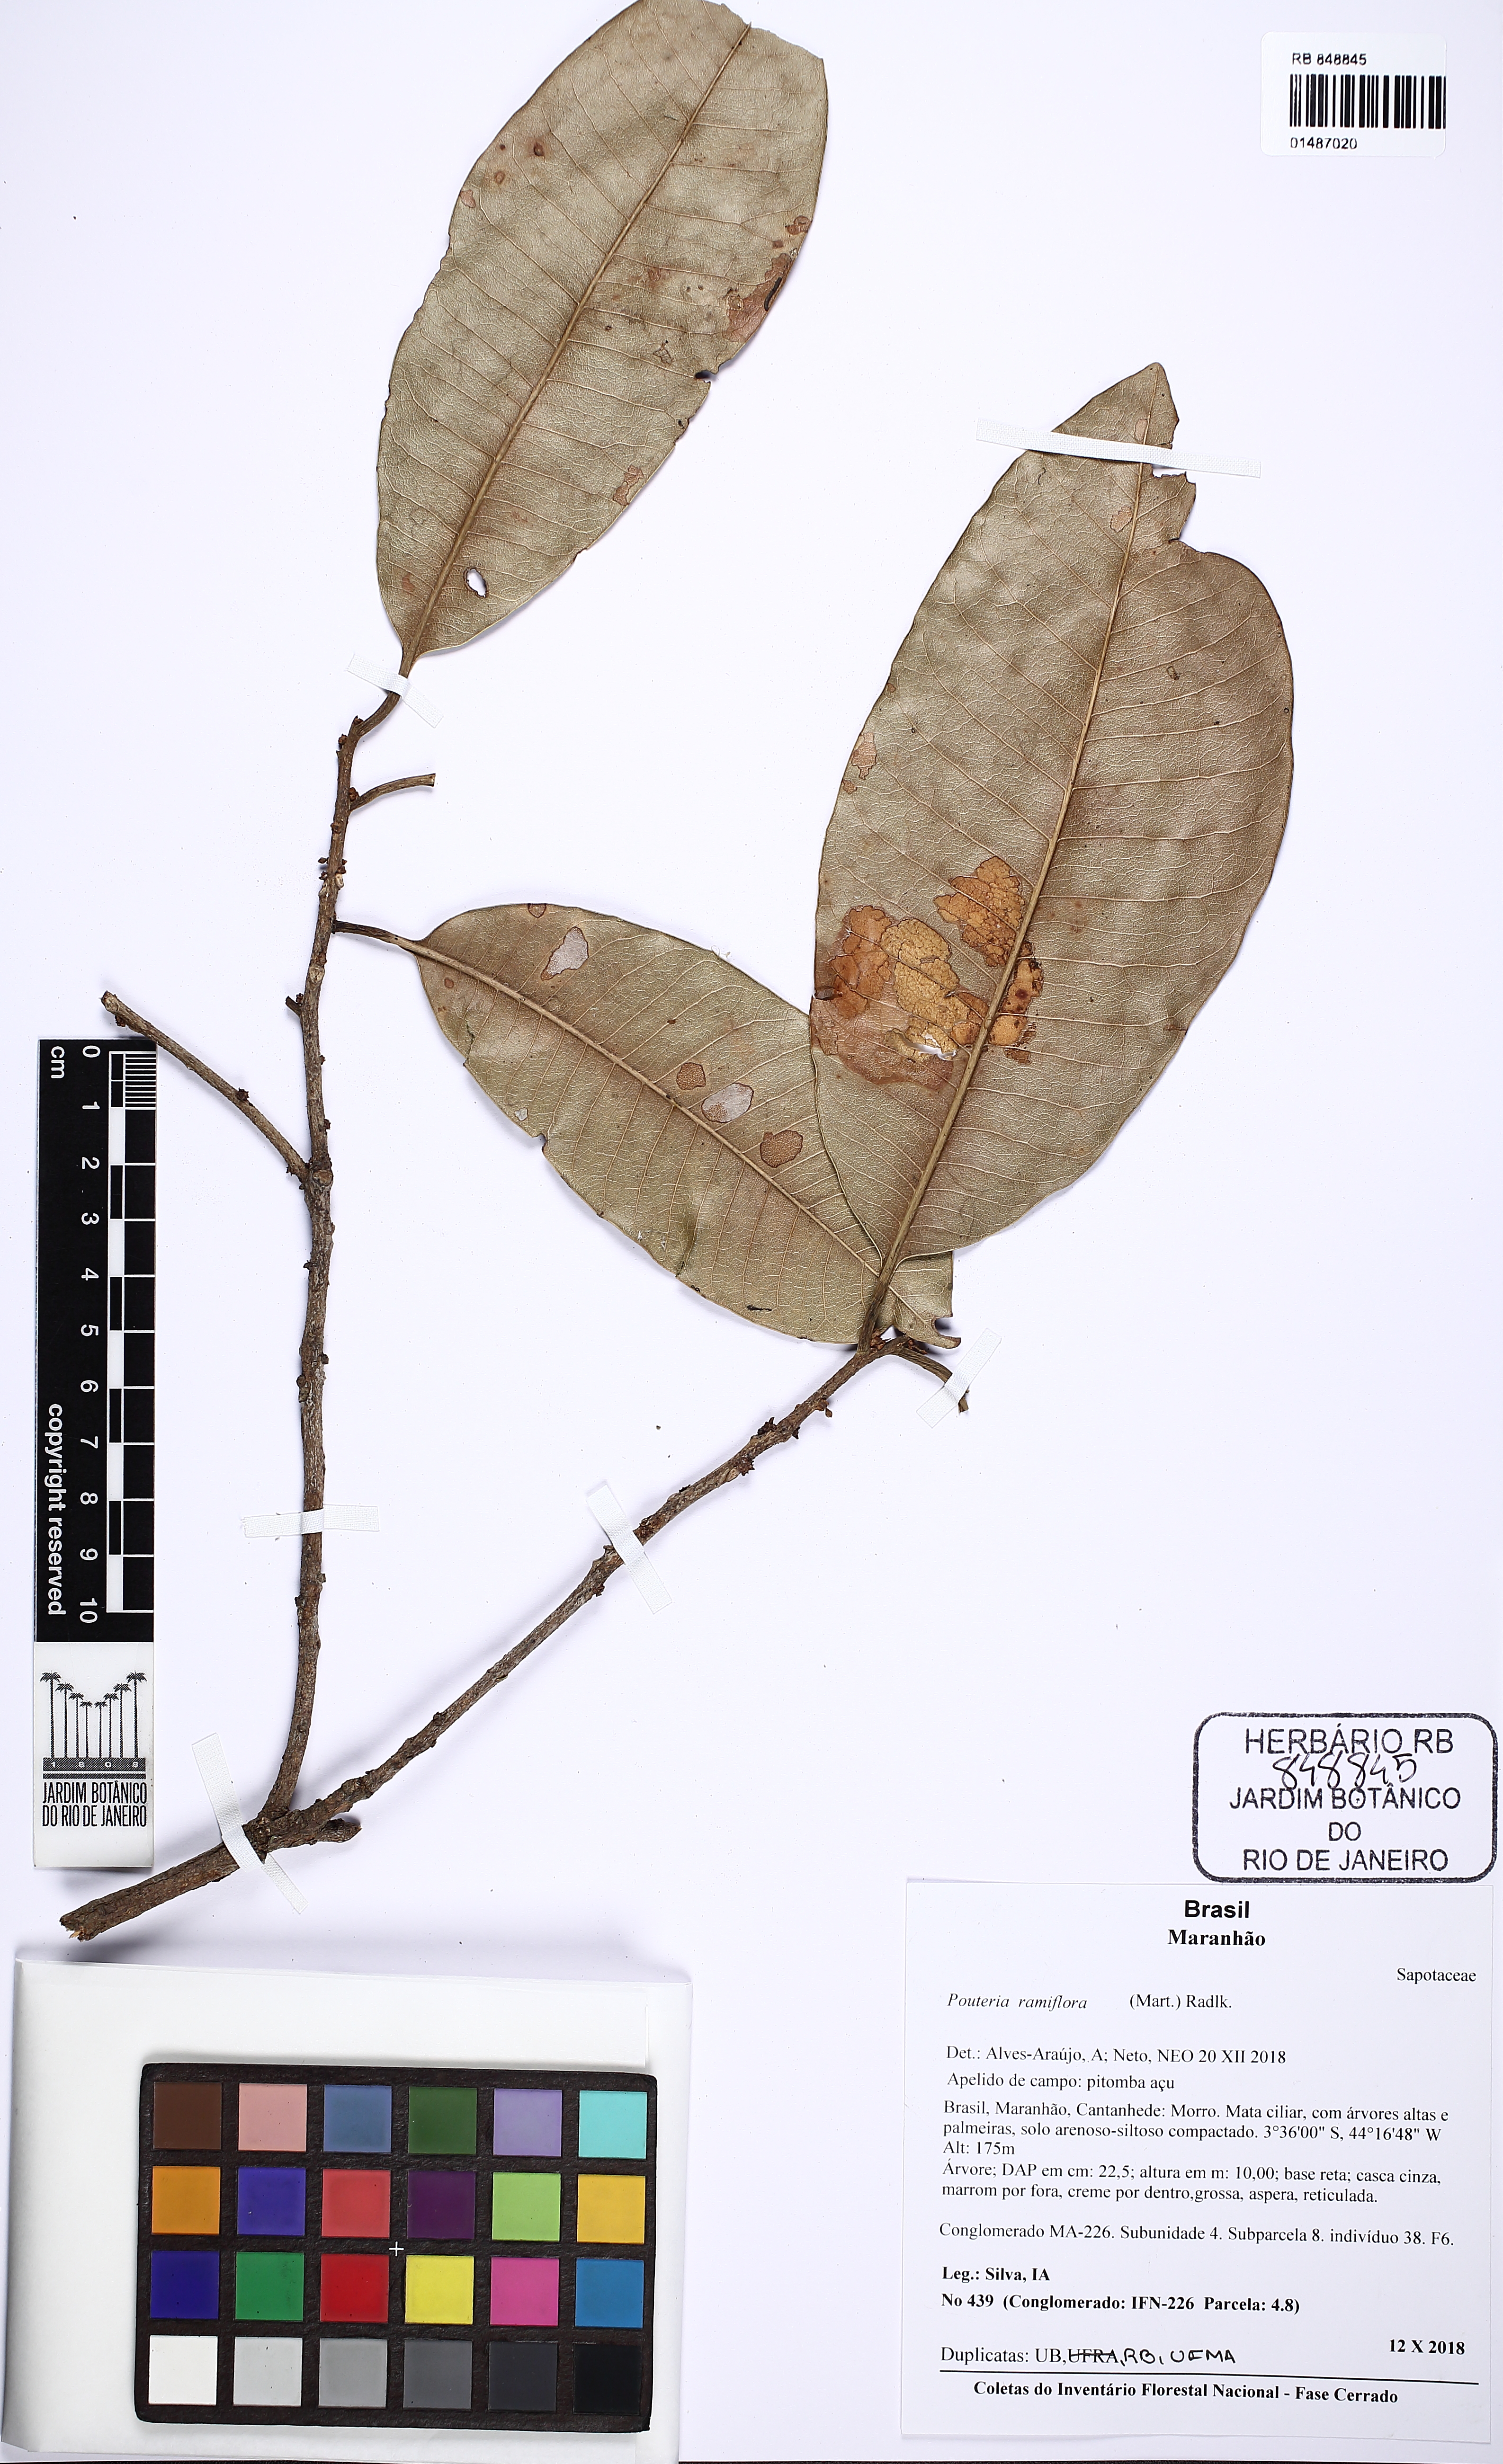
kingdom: Plantae
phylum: Tracheophyta
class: Magnoliopsida
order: Ericales
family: Sapotaceae
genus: Pouteria
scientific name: Pouteria ramiflora
